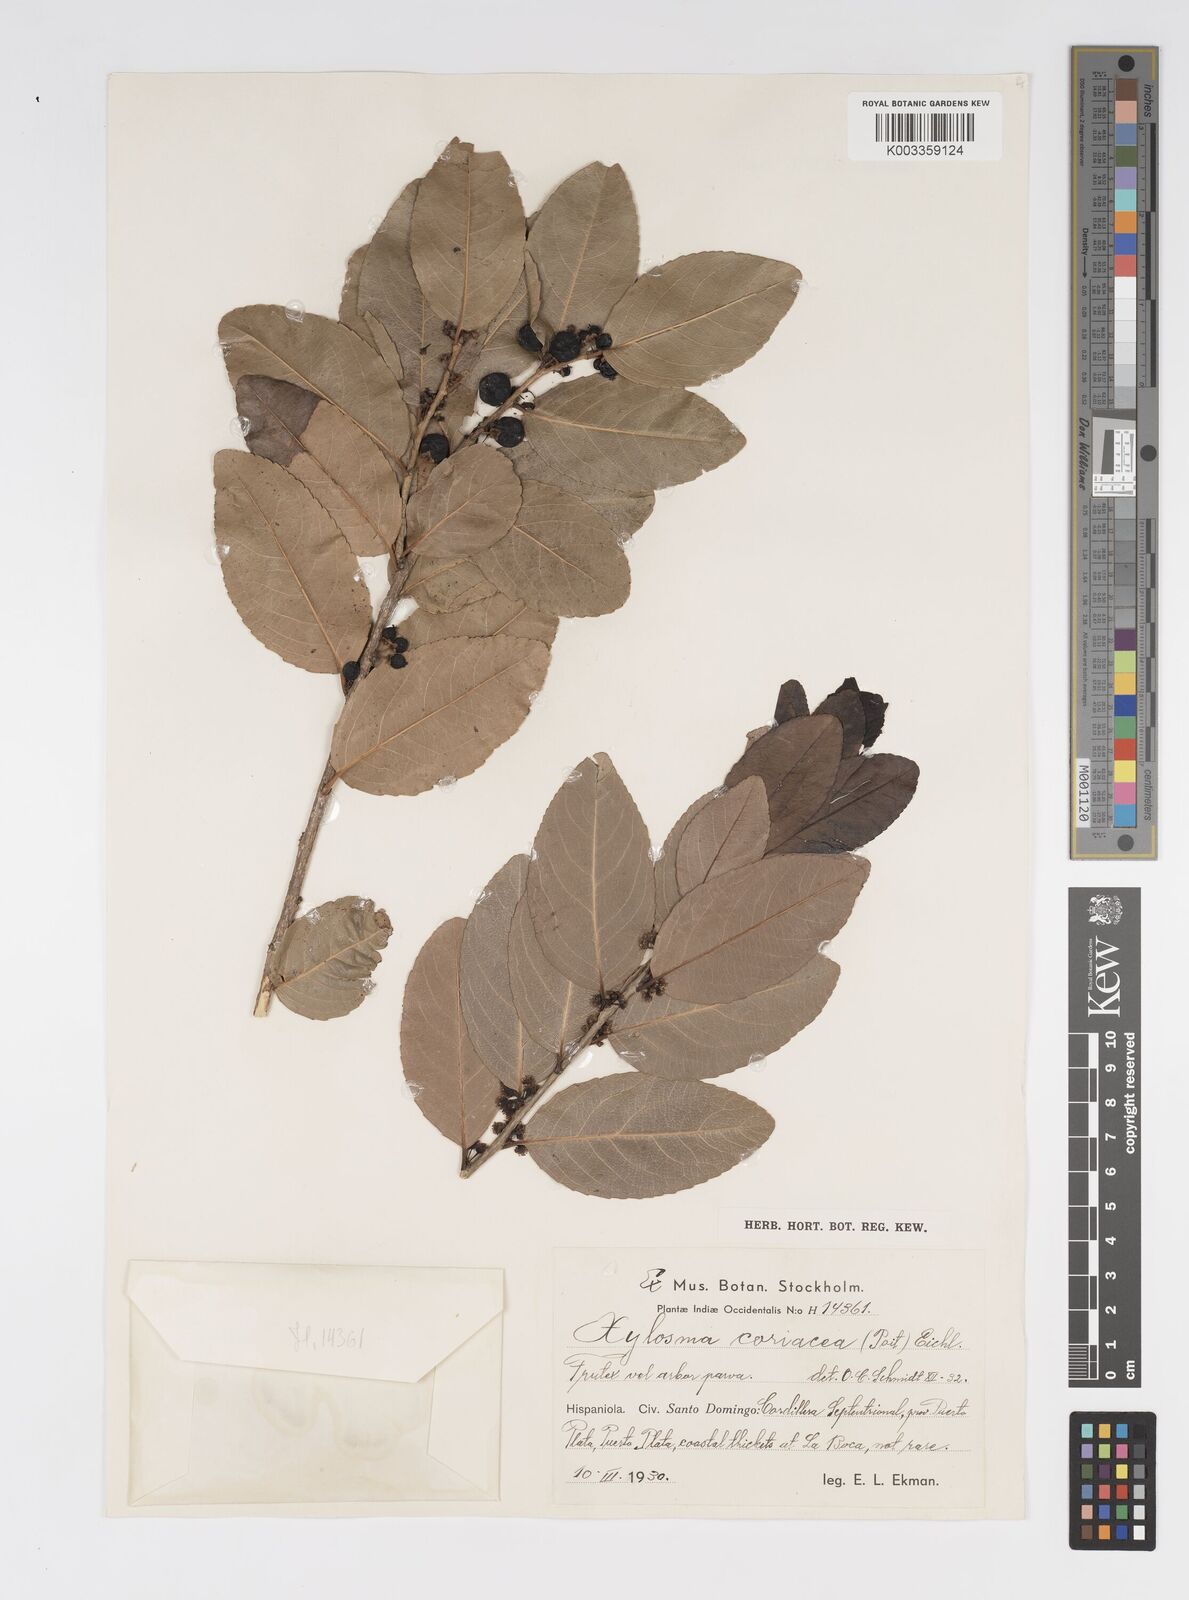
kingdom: Plantae
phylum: Tracheophyta
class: Magnoliopsida
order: Malpighiales
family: Salicaceae
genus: Xylosma
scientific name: Xylosma coriacea
